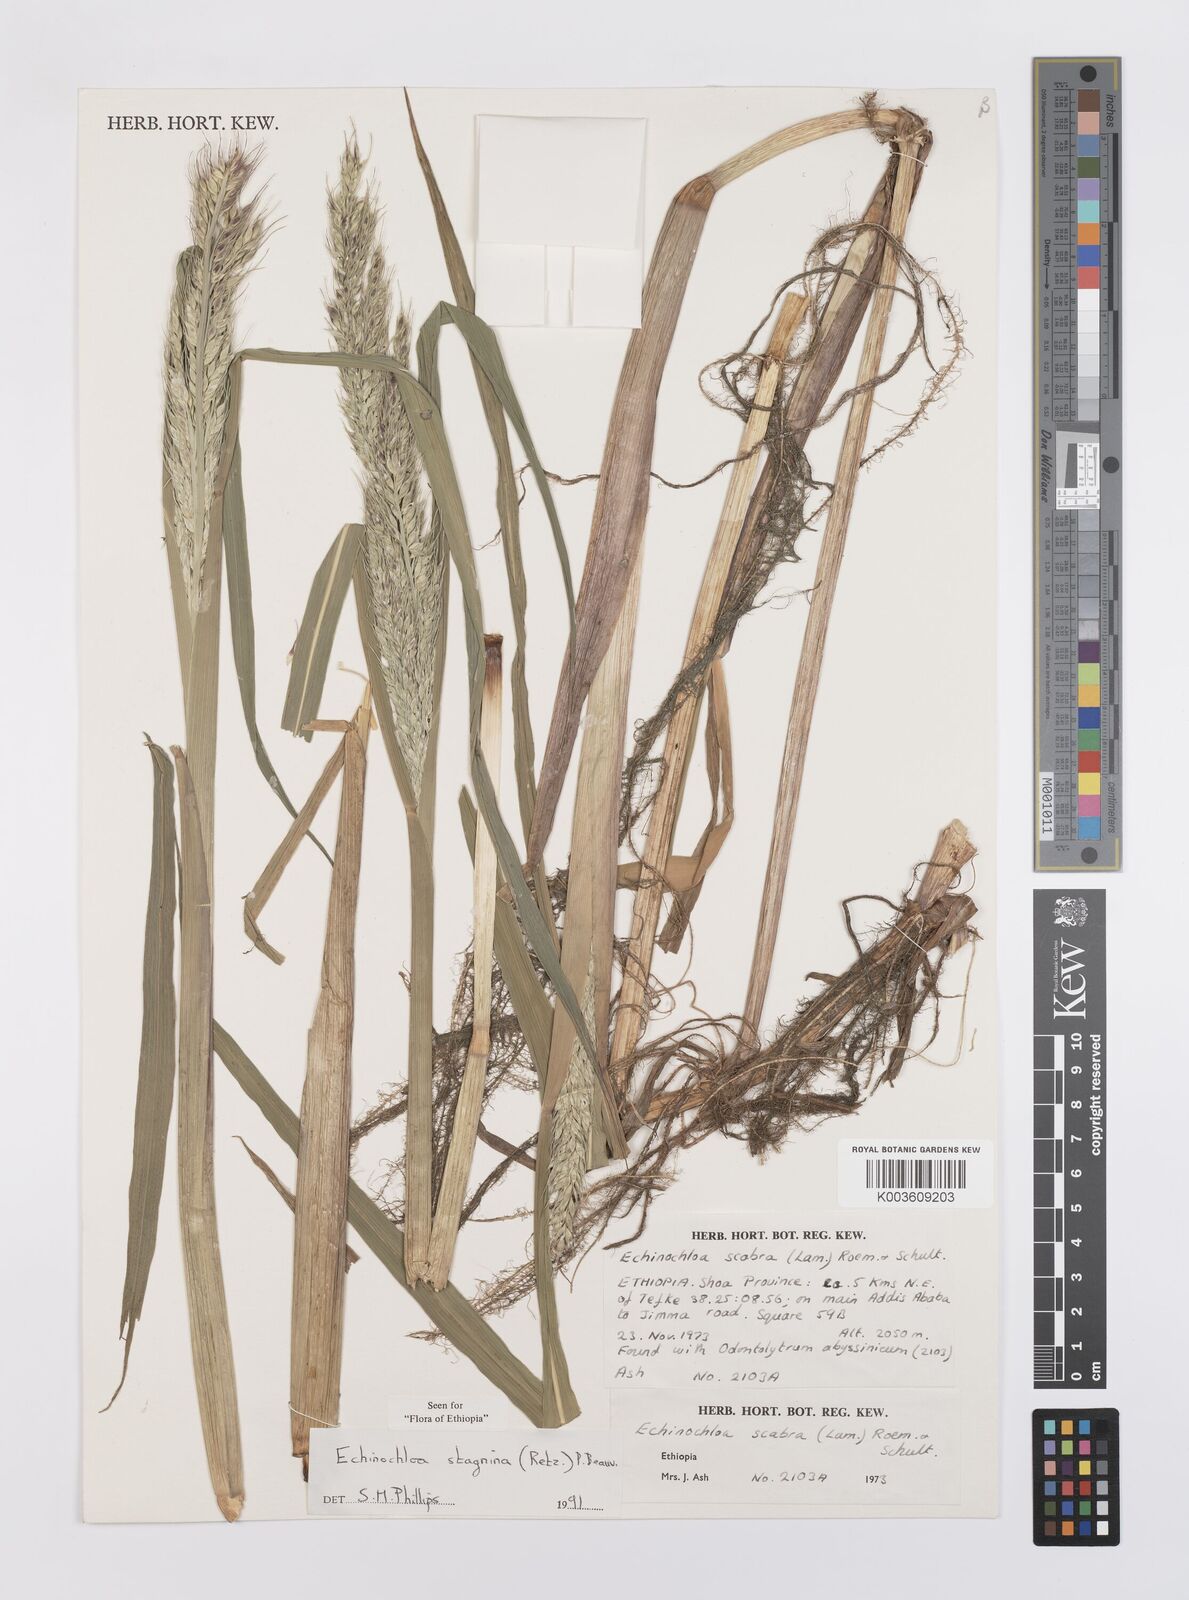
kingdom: Plantae
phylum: Tracheophyta
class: Liliopsida
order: Poales
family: Poaceae
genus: Echinochloa
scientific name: Echinochloa stagnina
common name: Burgu grass
